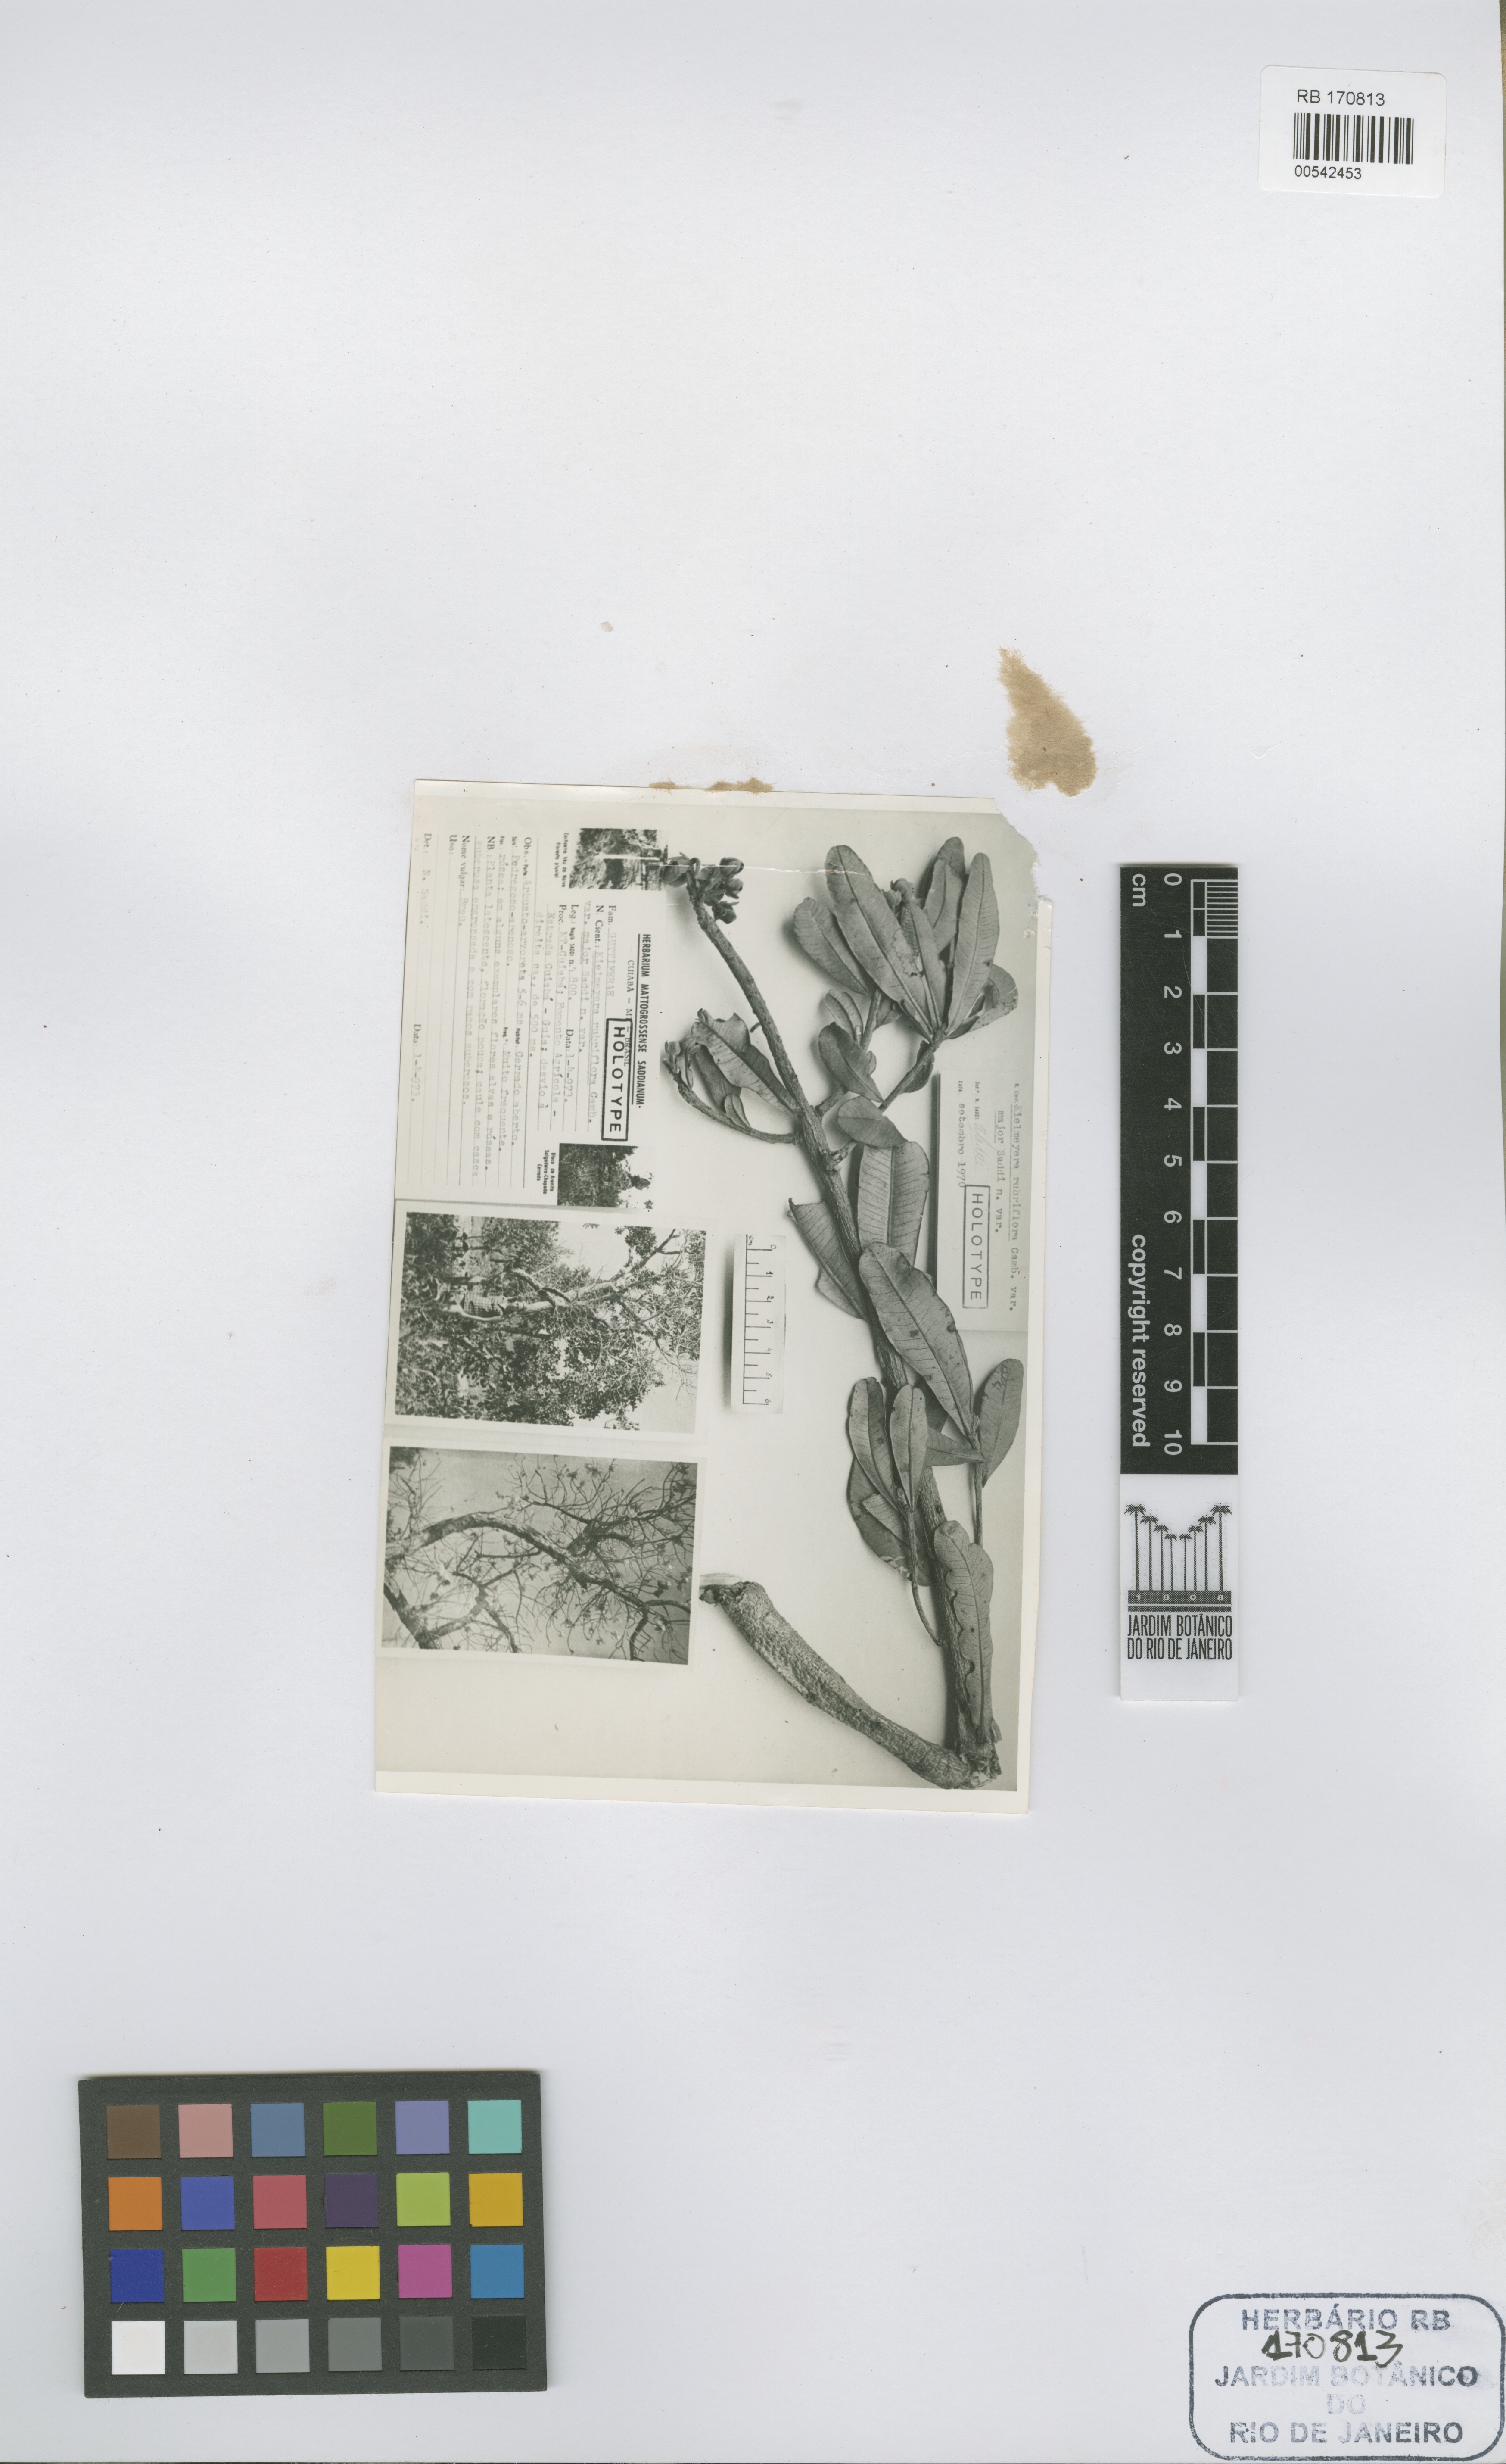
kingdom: Plantae
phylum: Tracheophyta
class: Magnoliopsida
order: Malpighiales
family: Calophyllaceae
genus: Kielmeyera
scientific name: Kielmeyera rubriflora
